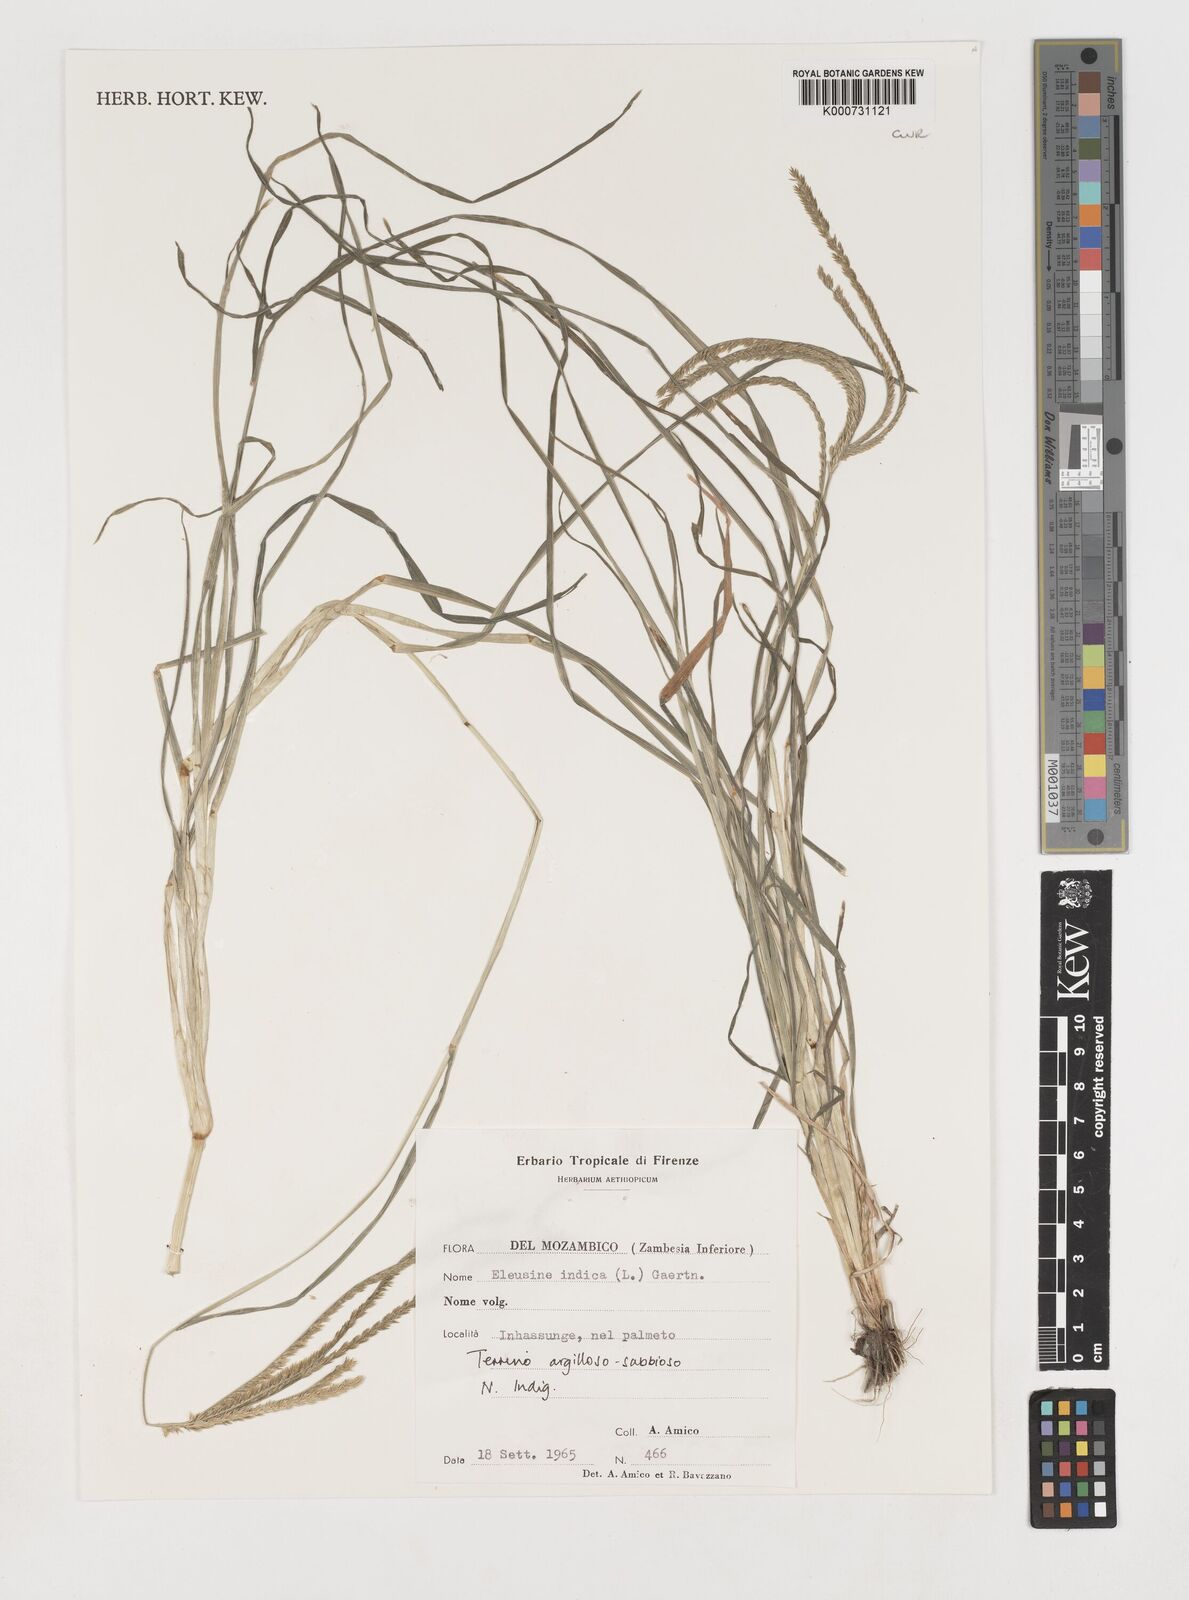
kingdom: Plantae
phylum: Tracheophyta
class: Liliopsida
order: Poales
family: Poaceae
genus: Eleusine
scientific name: Eleusine indica
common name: Yard-grass
